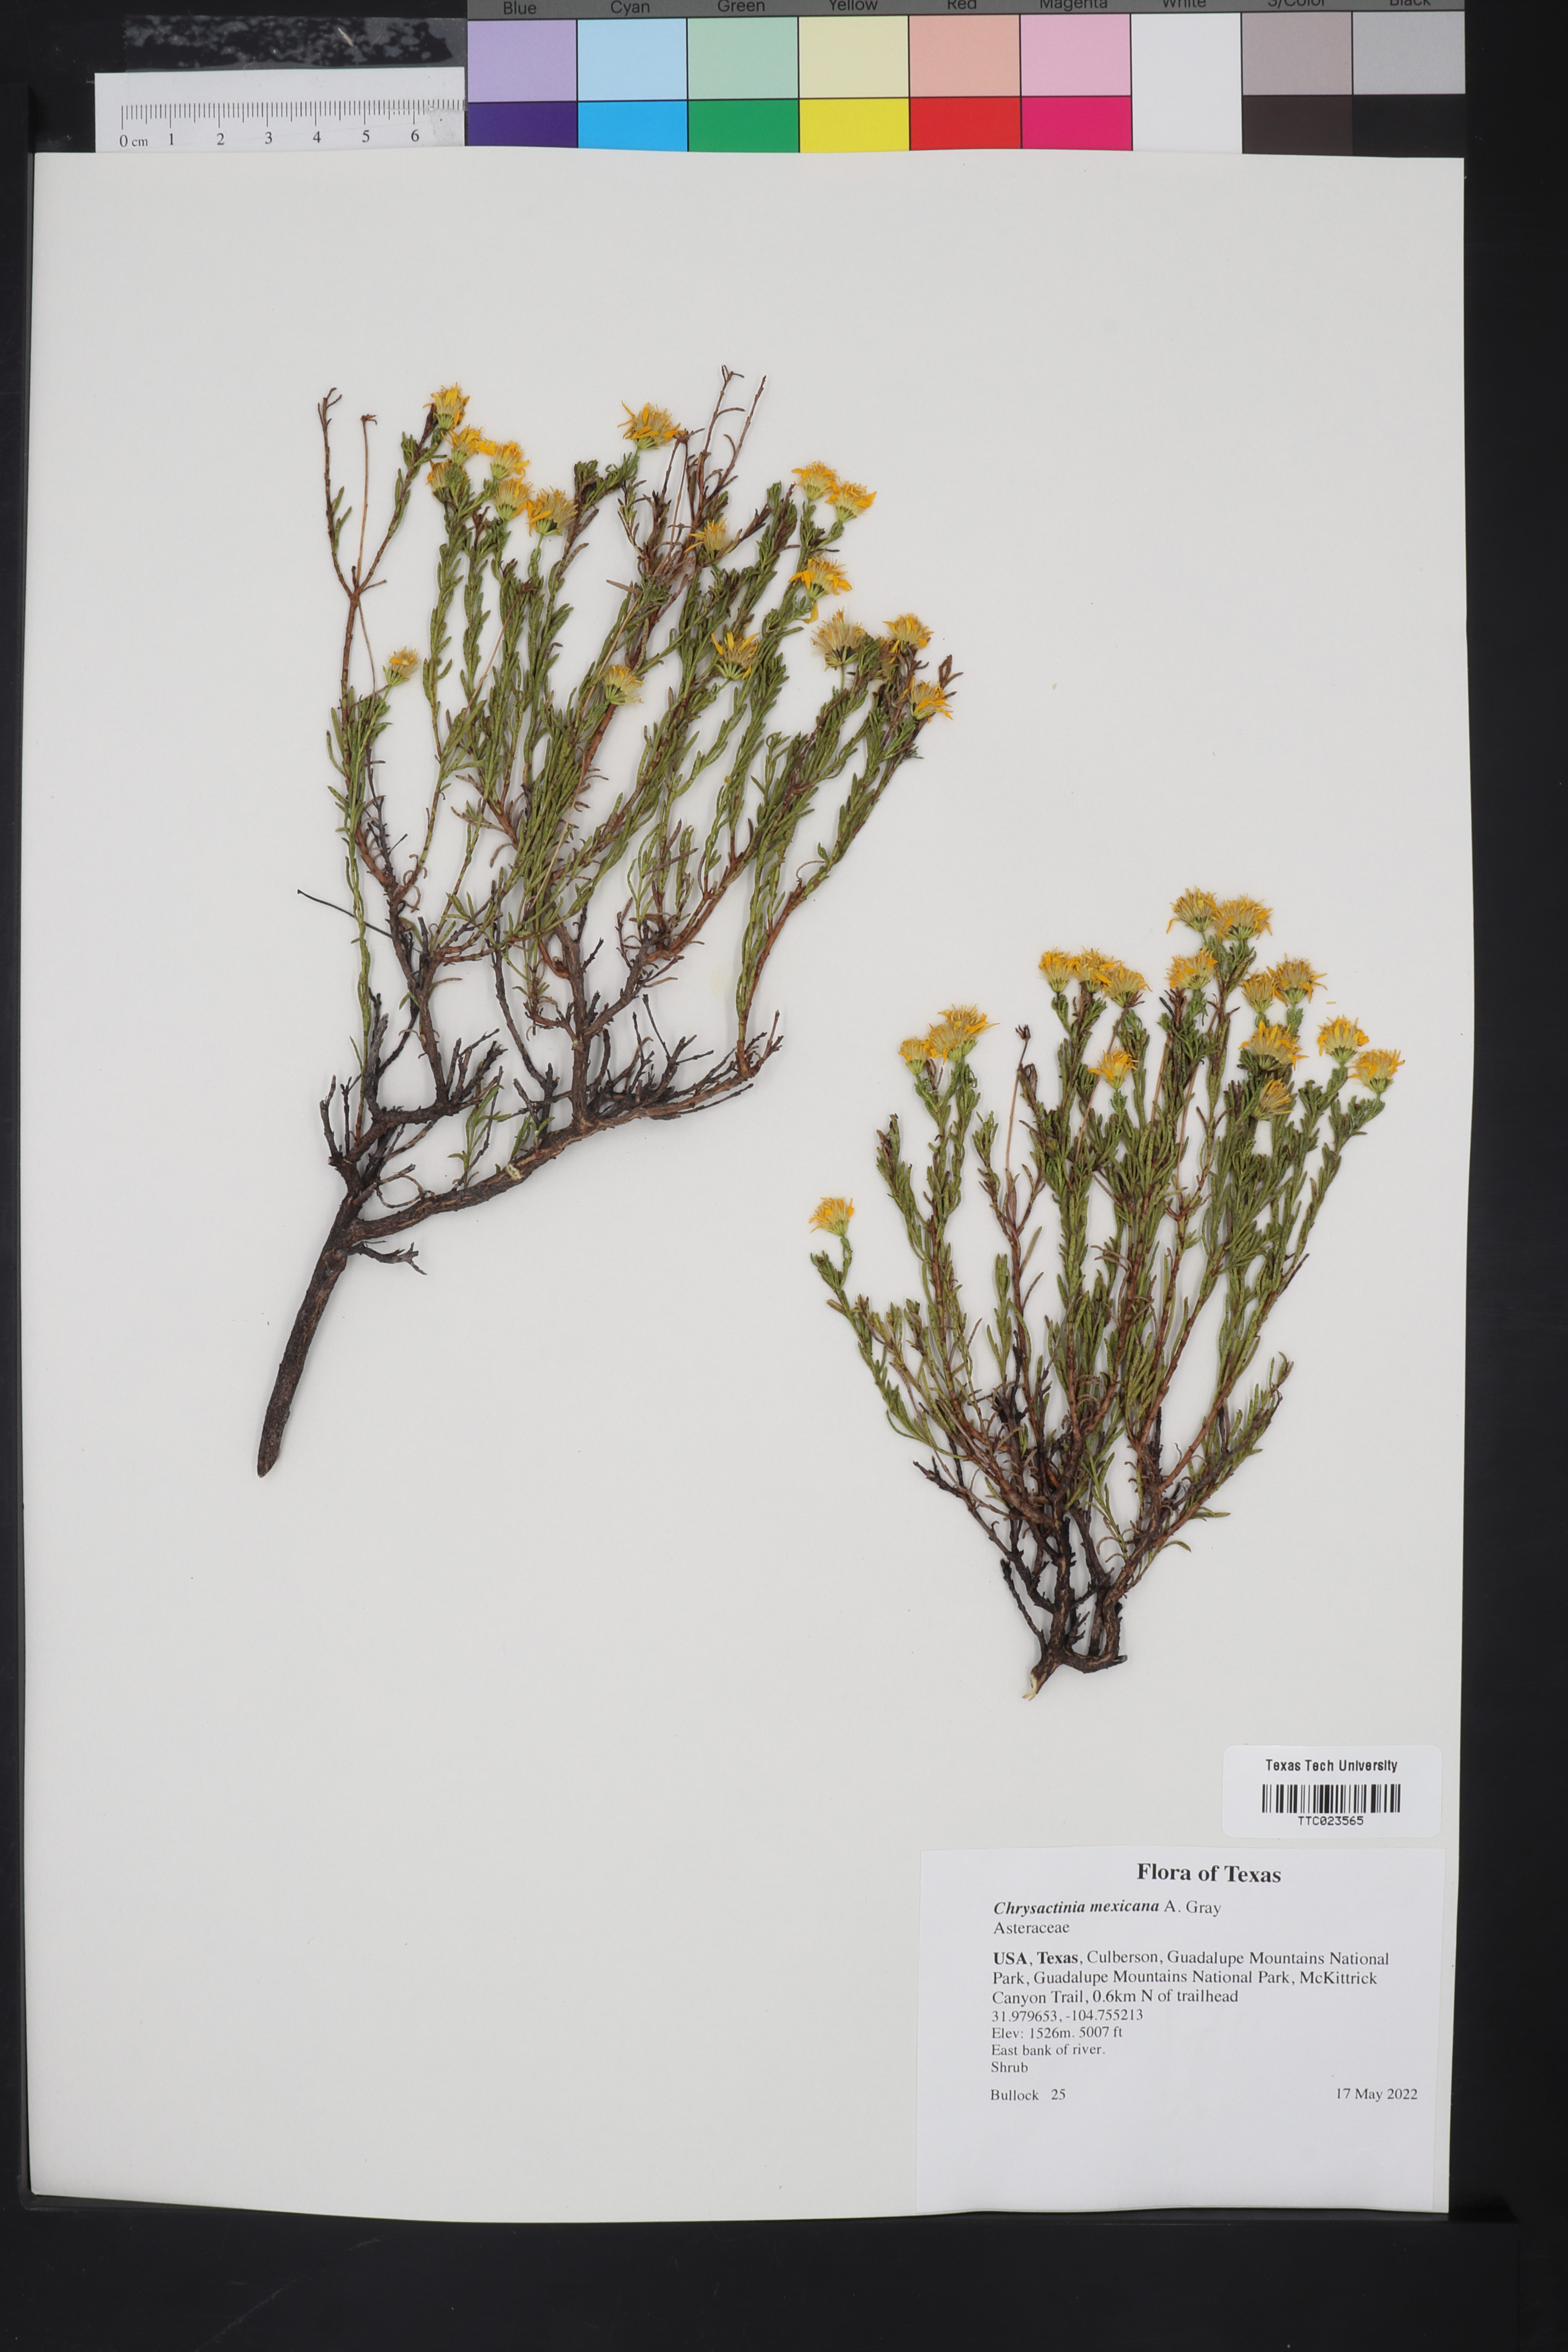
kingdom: Plantae
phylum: Tracheophyta
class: Magnoliopsida
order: Asterales
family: Asteraceae
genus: Chrysactinia
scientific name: Chrysactinia mexicana
